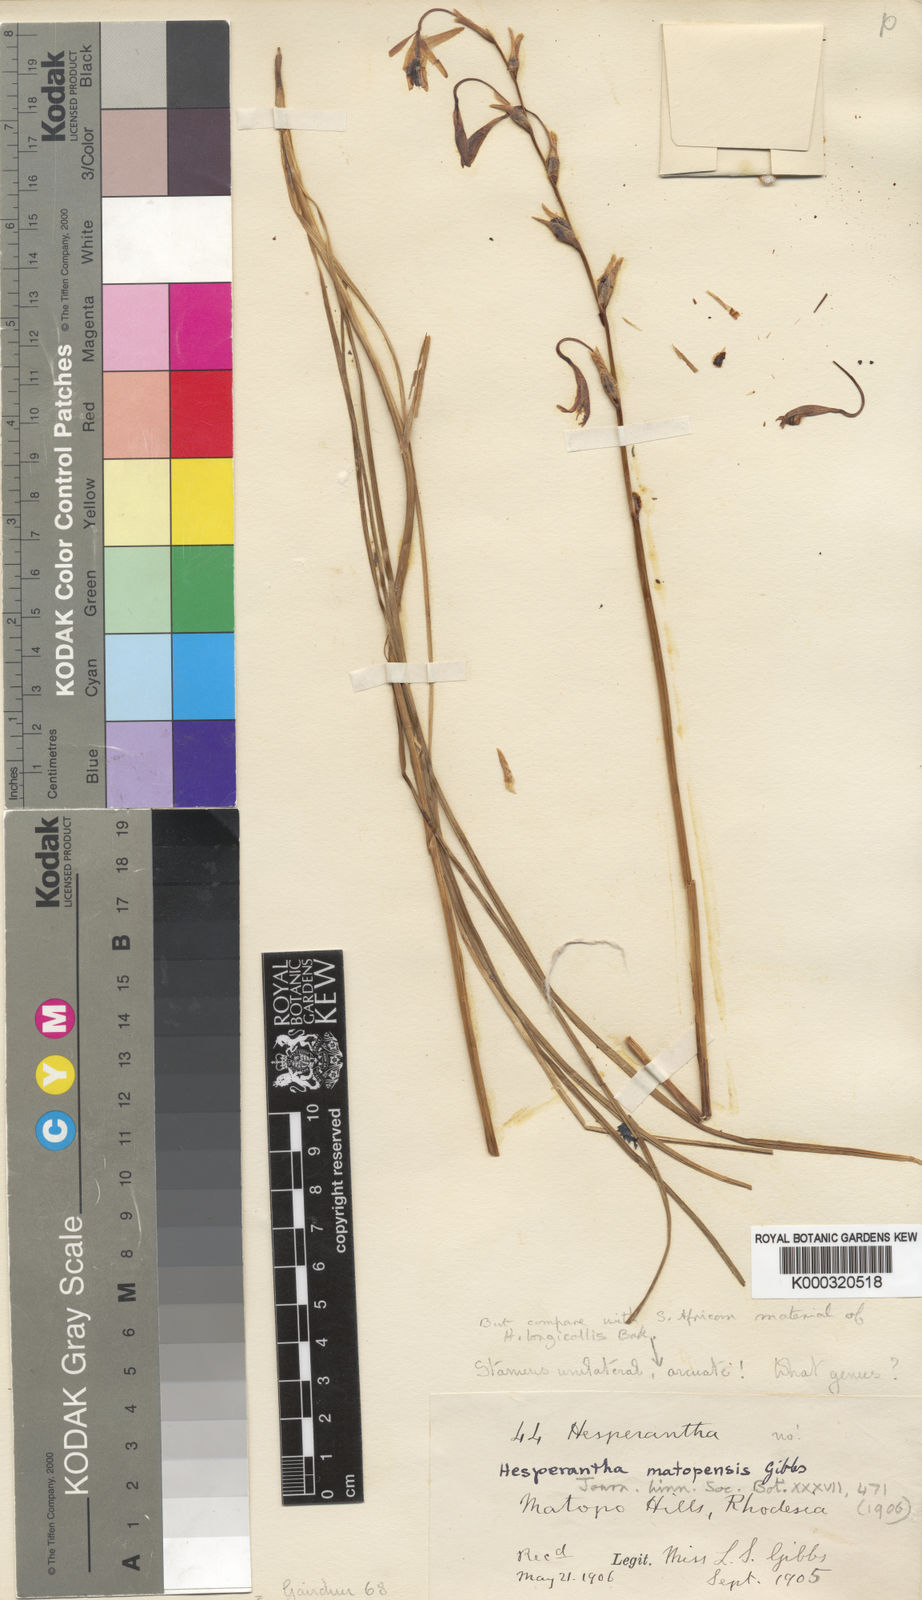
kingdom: Plantae
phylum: Tracheophyta
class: Liliopsida
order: Asparagales
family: Iridaceae
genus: Hesperantha
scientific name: Hesperantha longicollis
